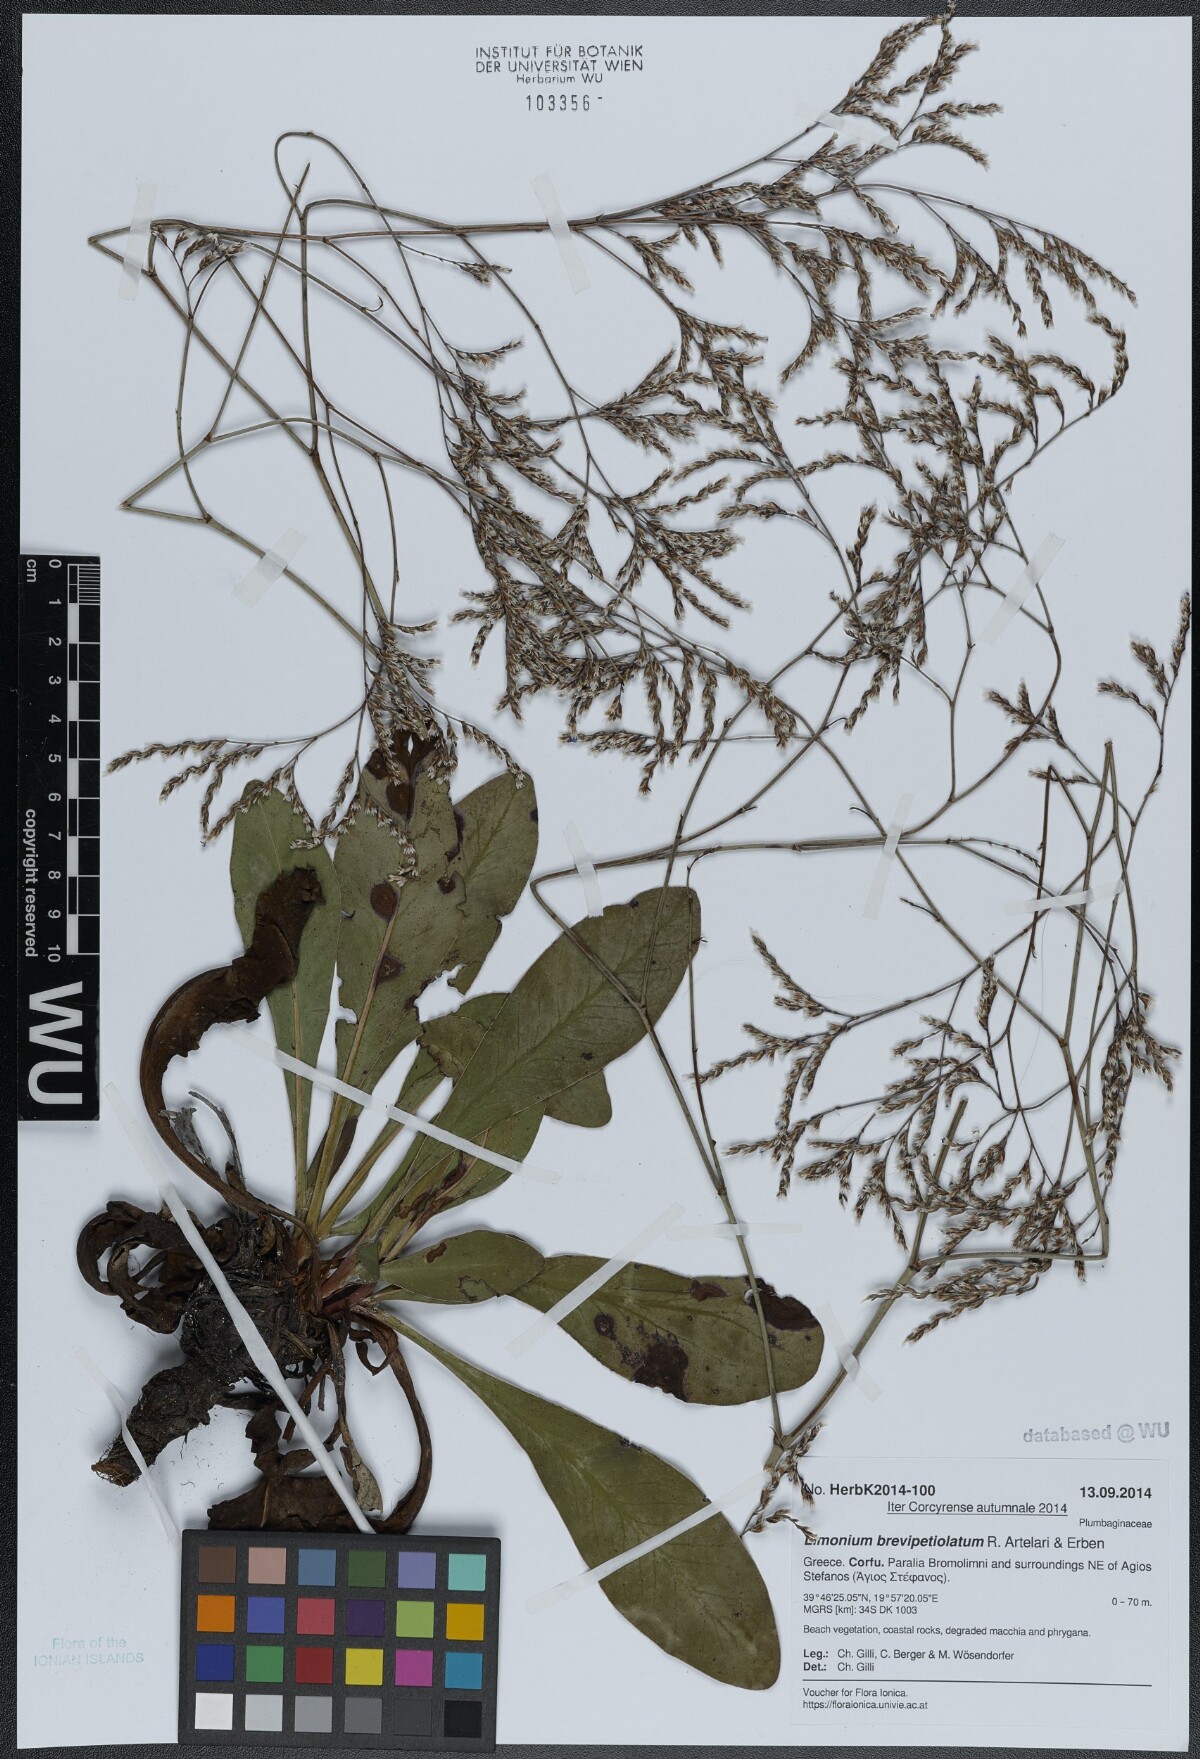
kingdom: Plantae
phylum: Tracheophyta
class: Magnoliopsida
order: Caryophyllales
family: Plumbaginaceae
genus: Limonium
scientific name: Limonium brevipetiolatum
